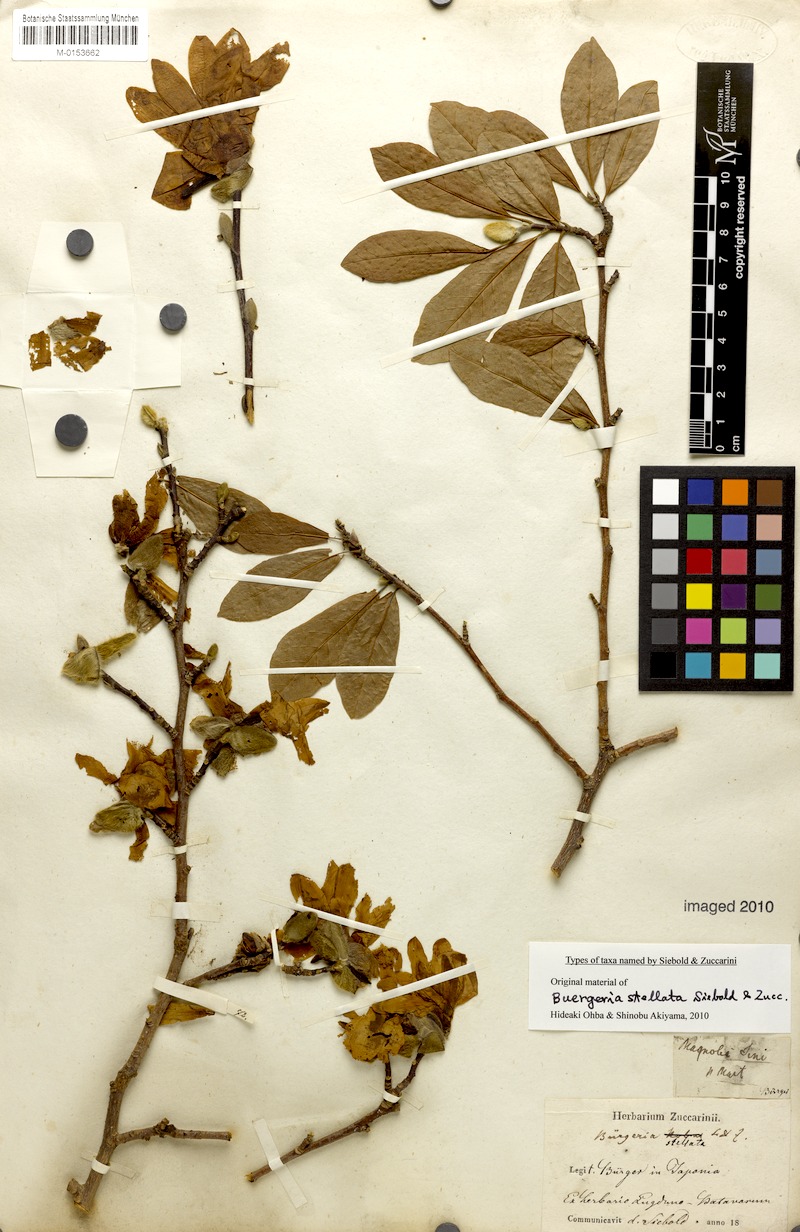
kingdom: Plantae
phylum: Tracheophyta
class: Magnoliopsida
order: Magnoliales
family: Magnoliaceae
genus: Magnolia
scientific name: Magnolia stellata
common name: Star magnolia
